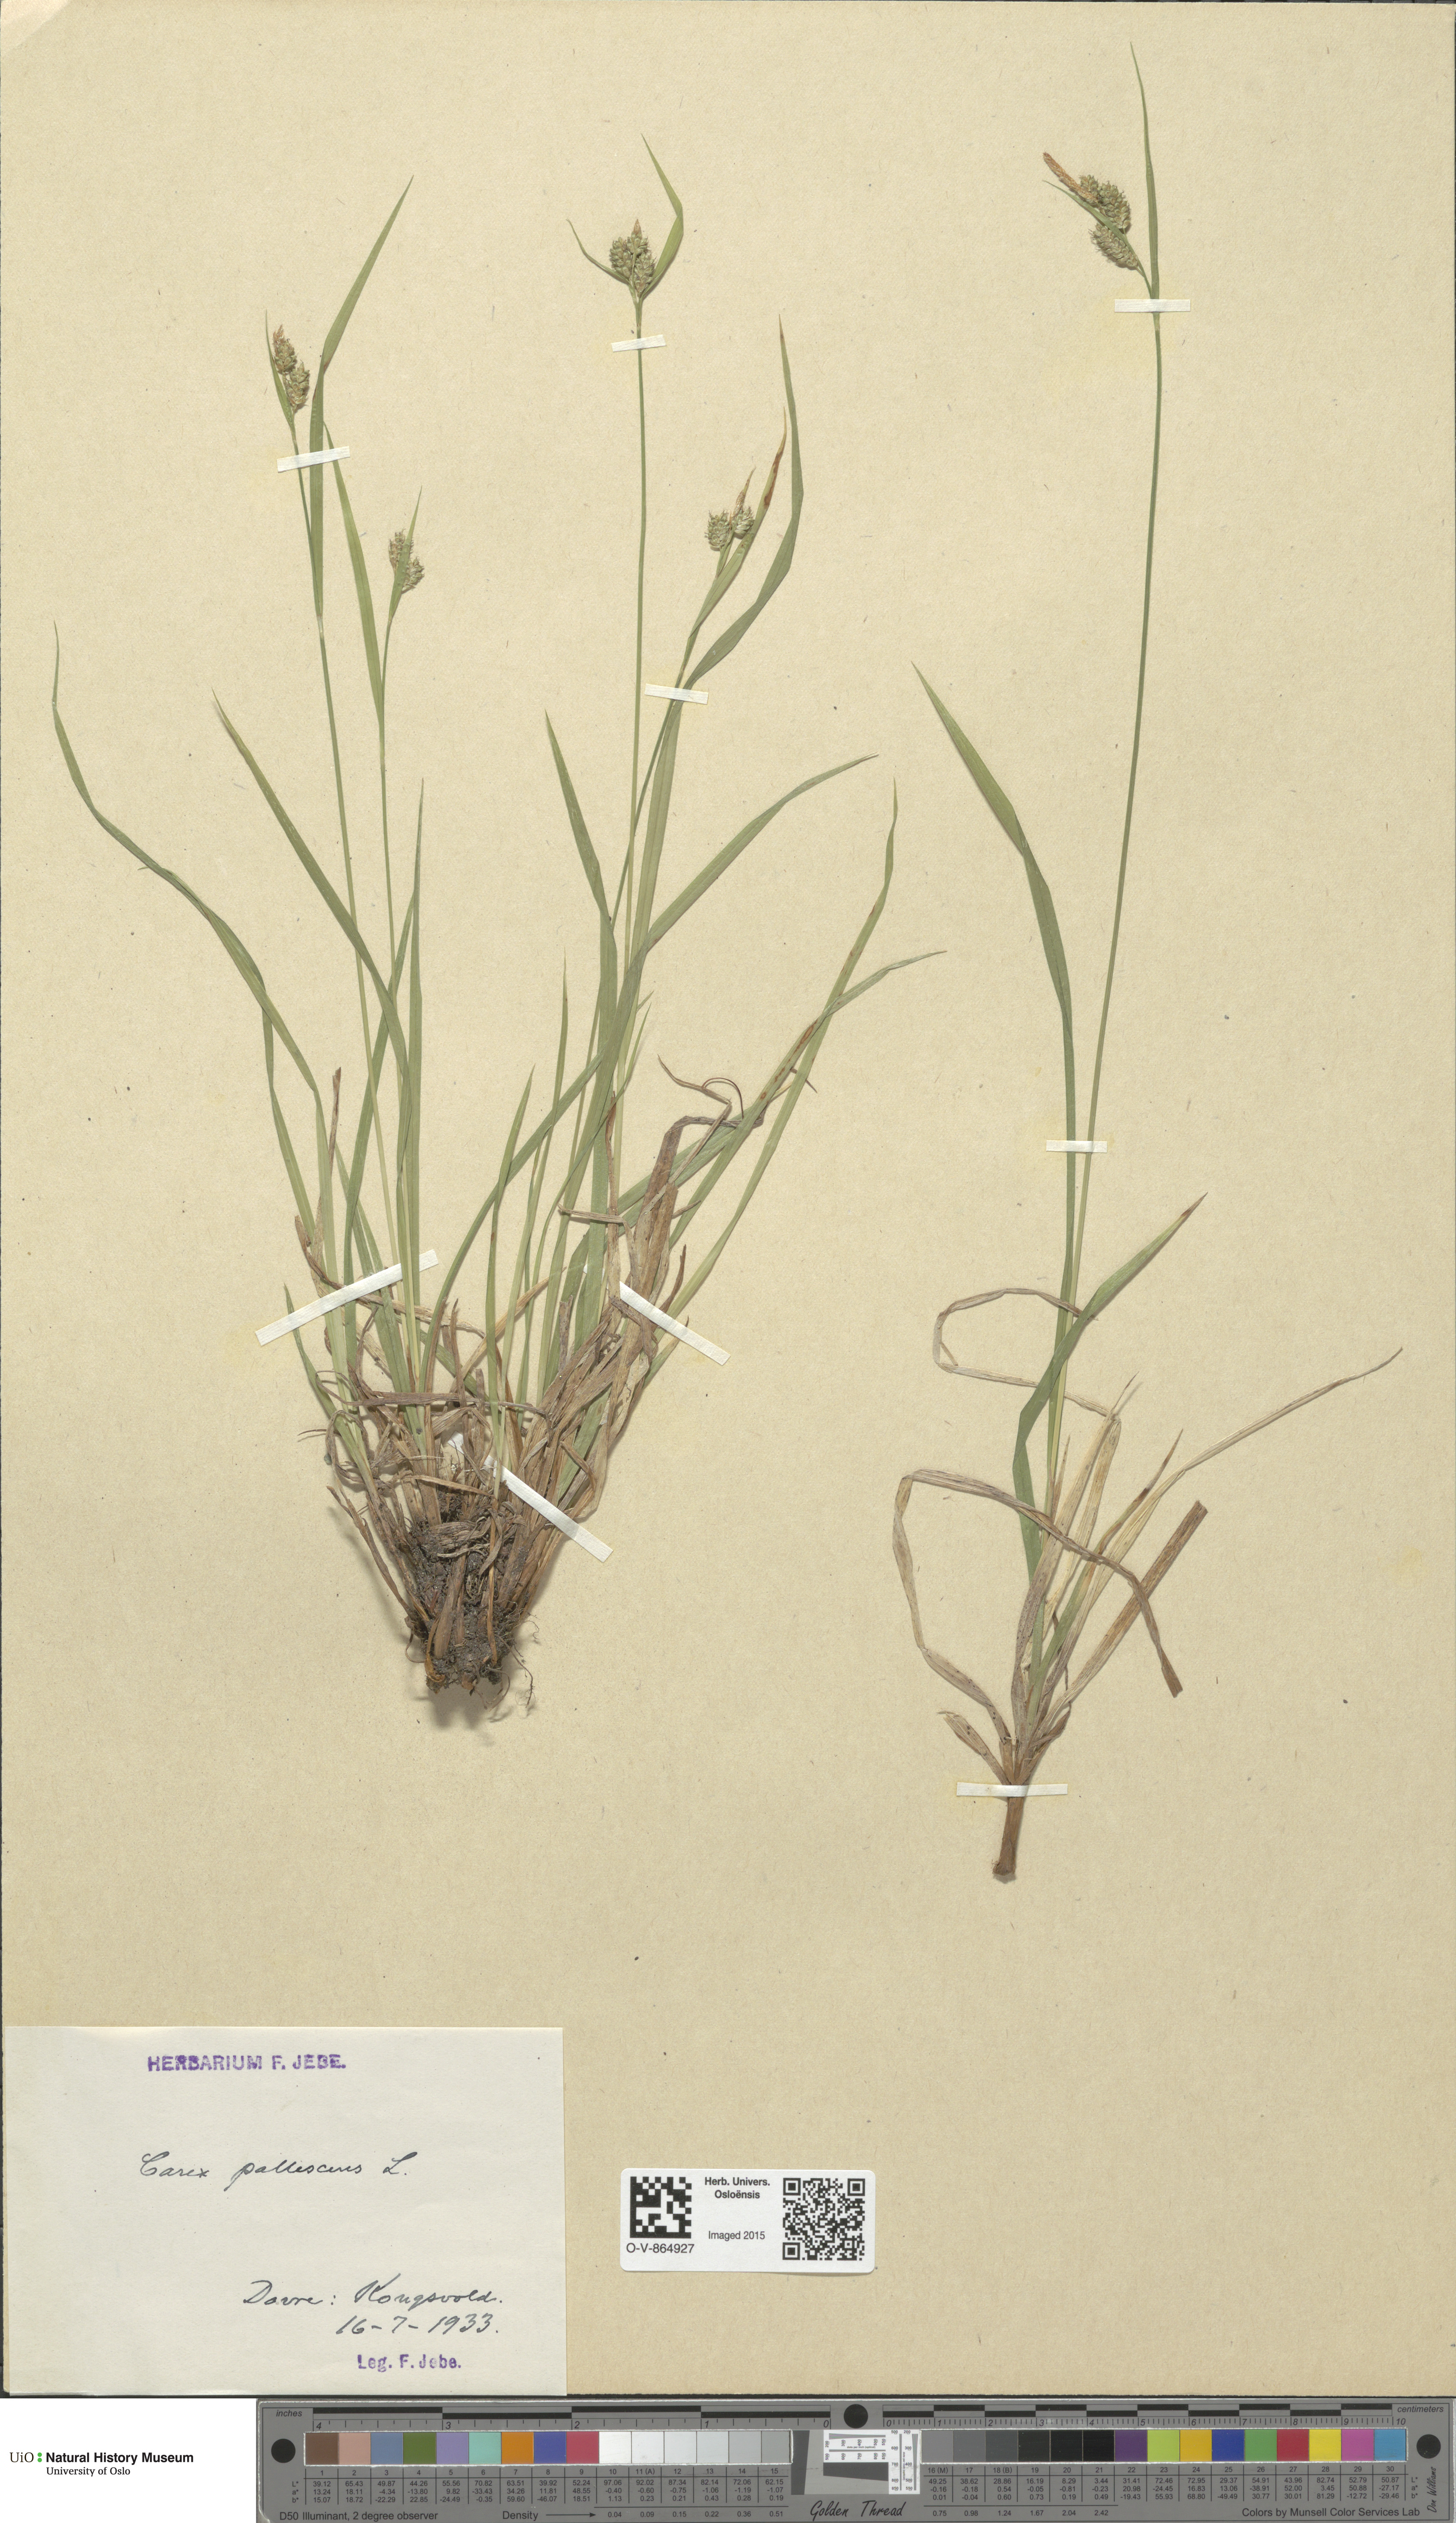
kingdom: Plantae
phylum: Tracheophyta
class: Liliopsida
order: Poales
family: Cyperaceae
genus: Carex
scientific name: Carex pallescens
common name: Pale sedge
